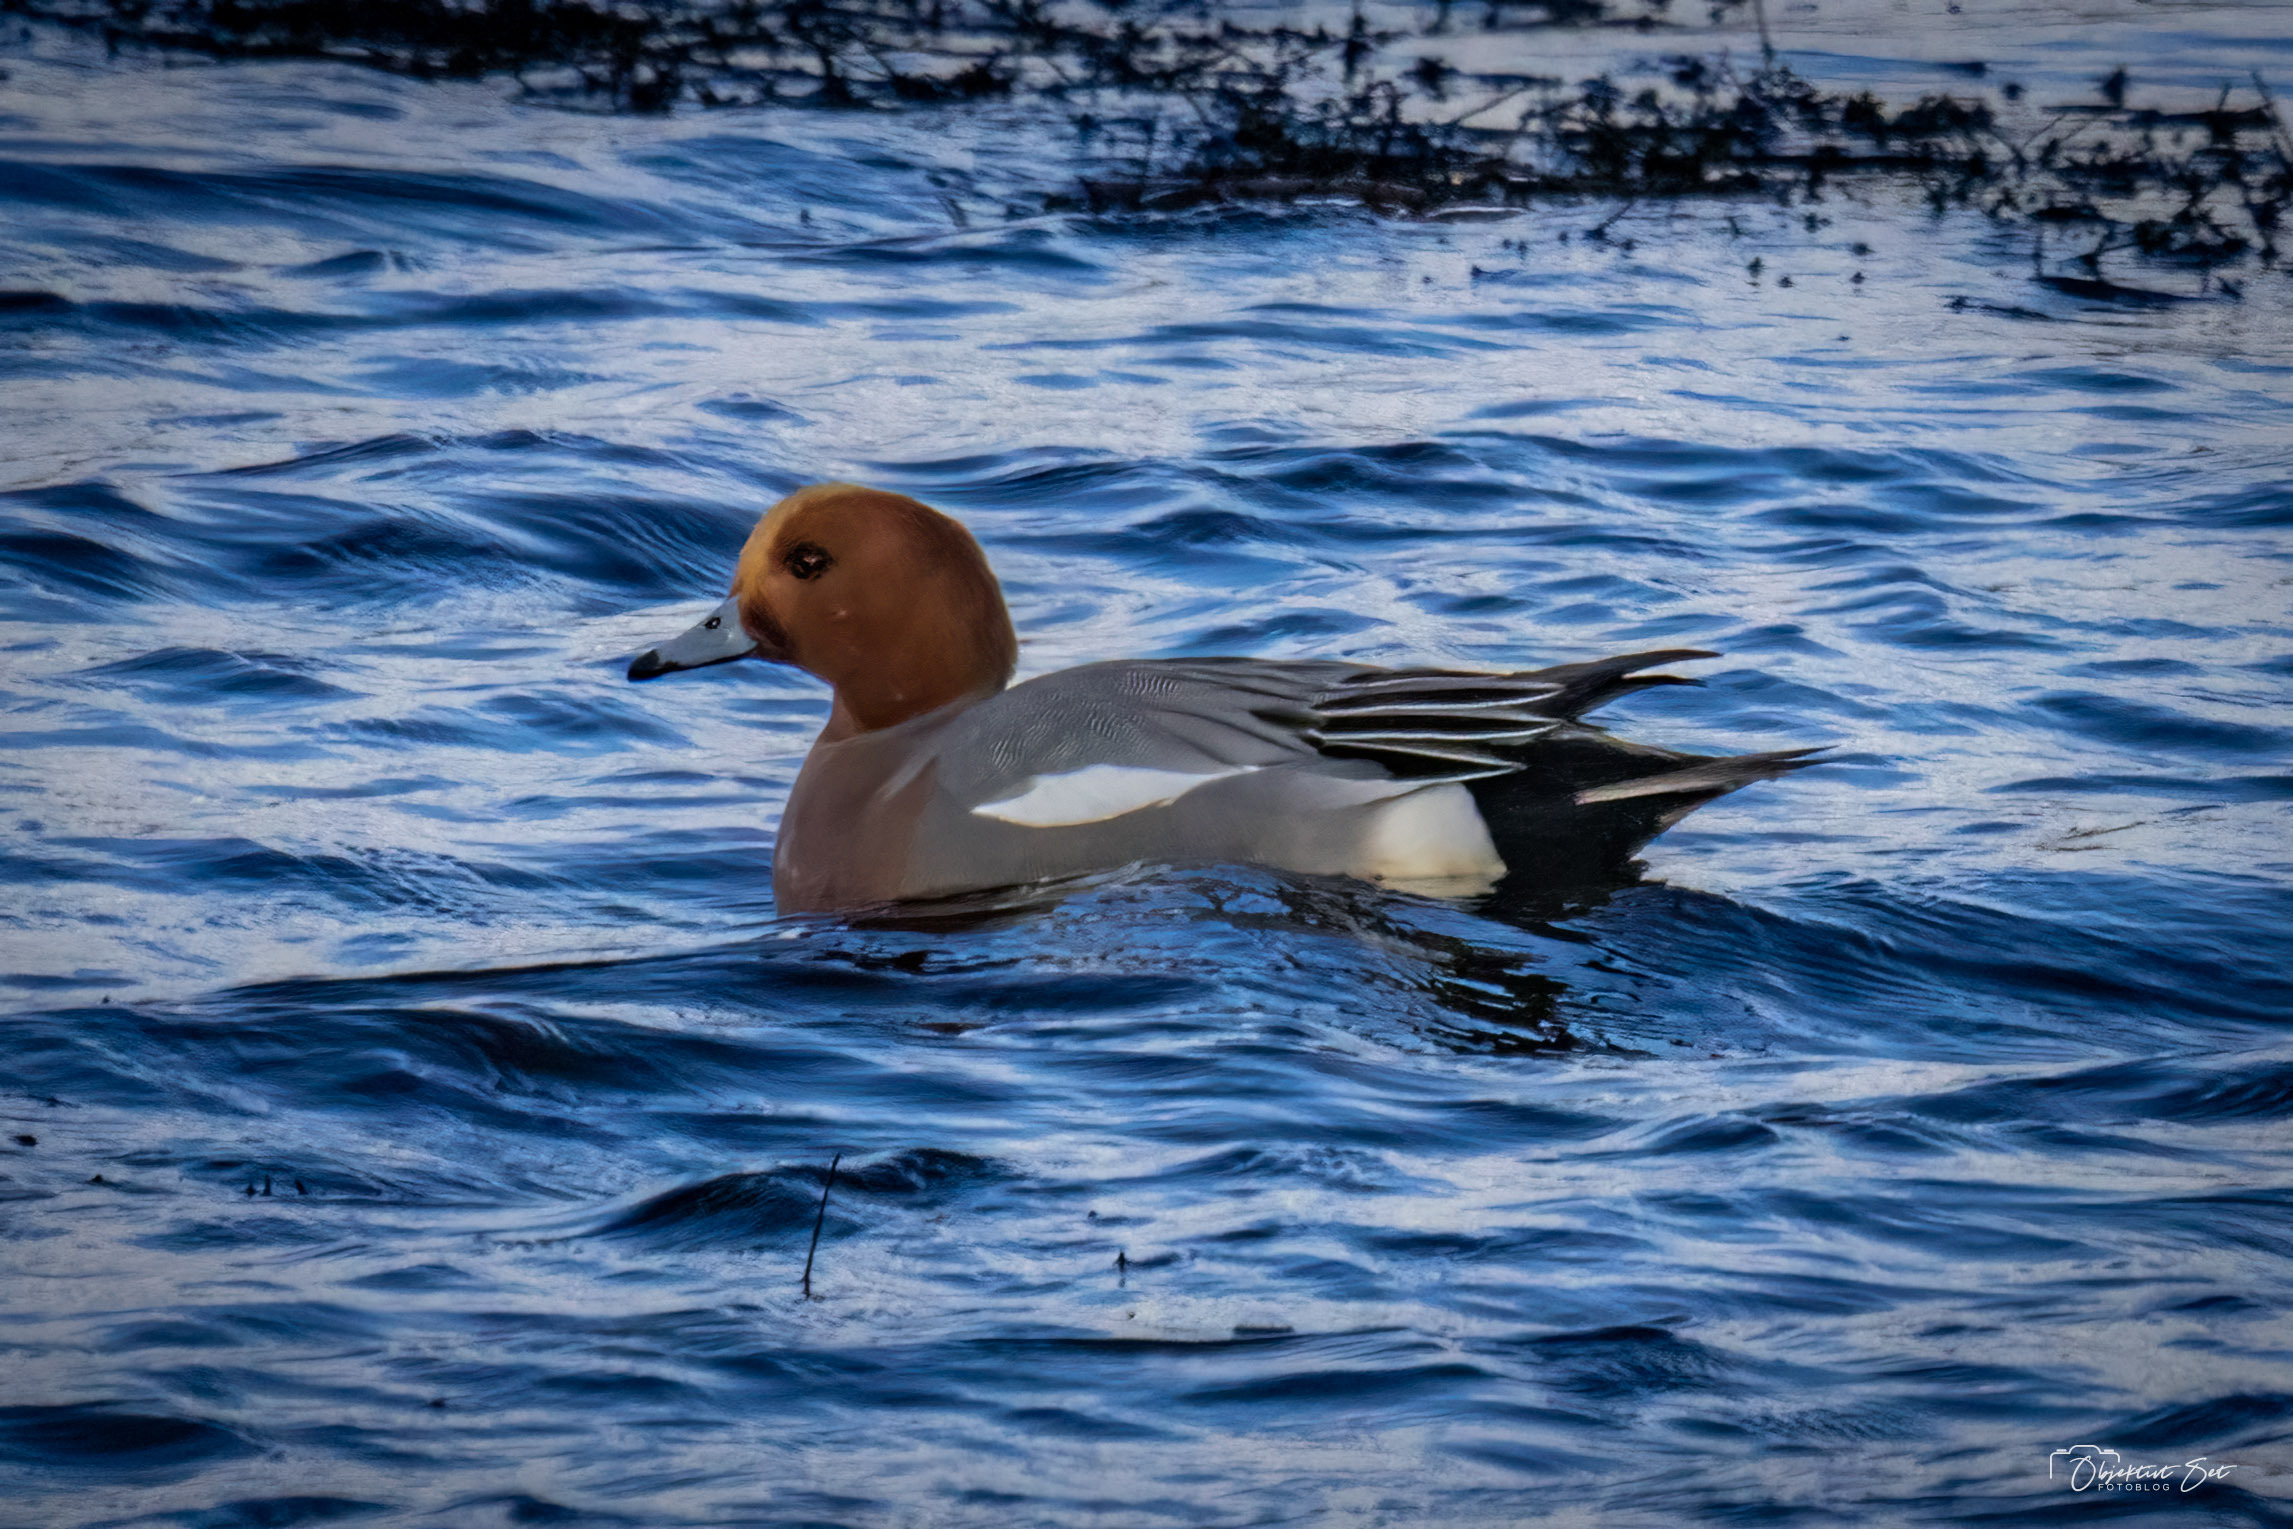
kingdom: Animalia
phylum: Chordata
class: Aves
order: Anseriformes
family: Anatidae
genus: Mareca
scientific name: Mareca penelope
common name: Pibeand
